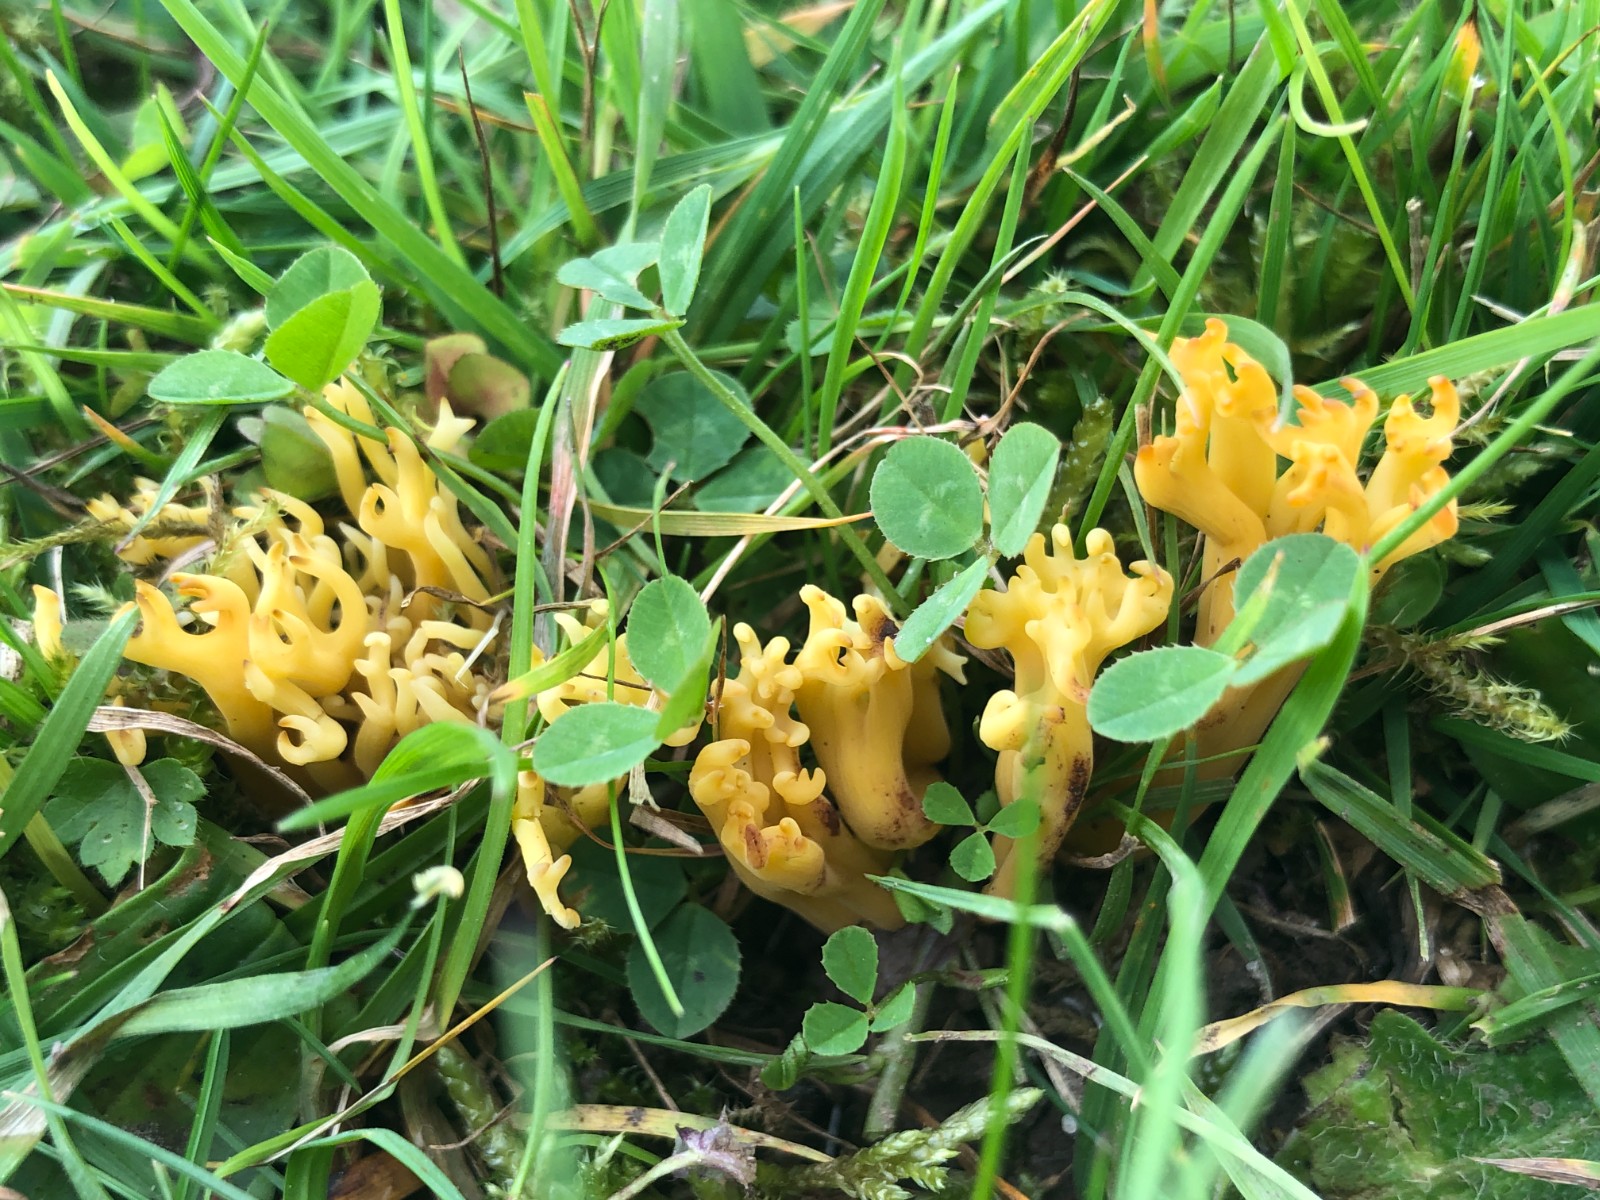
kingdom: Fungi
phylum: Basidiomycota
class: Agaricomycetes
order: Agaricales
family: Clavariaceae
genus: Clavulinopsis
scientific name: Clavulinopsis corniculata
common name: eng-køllesvamp
